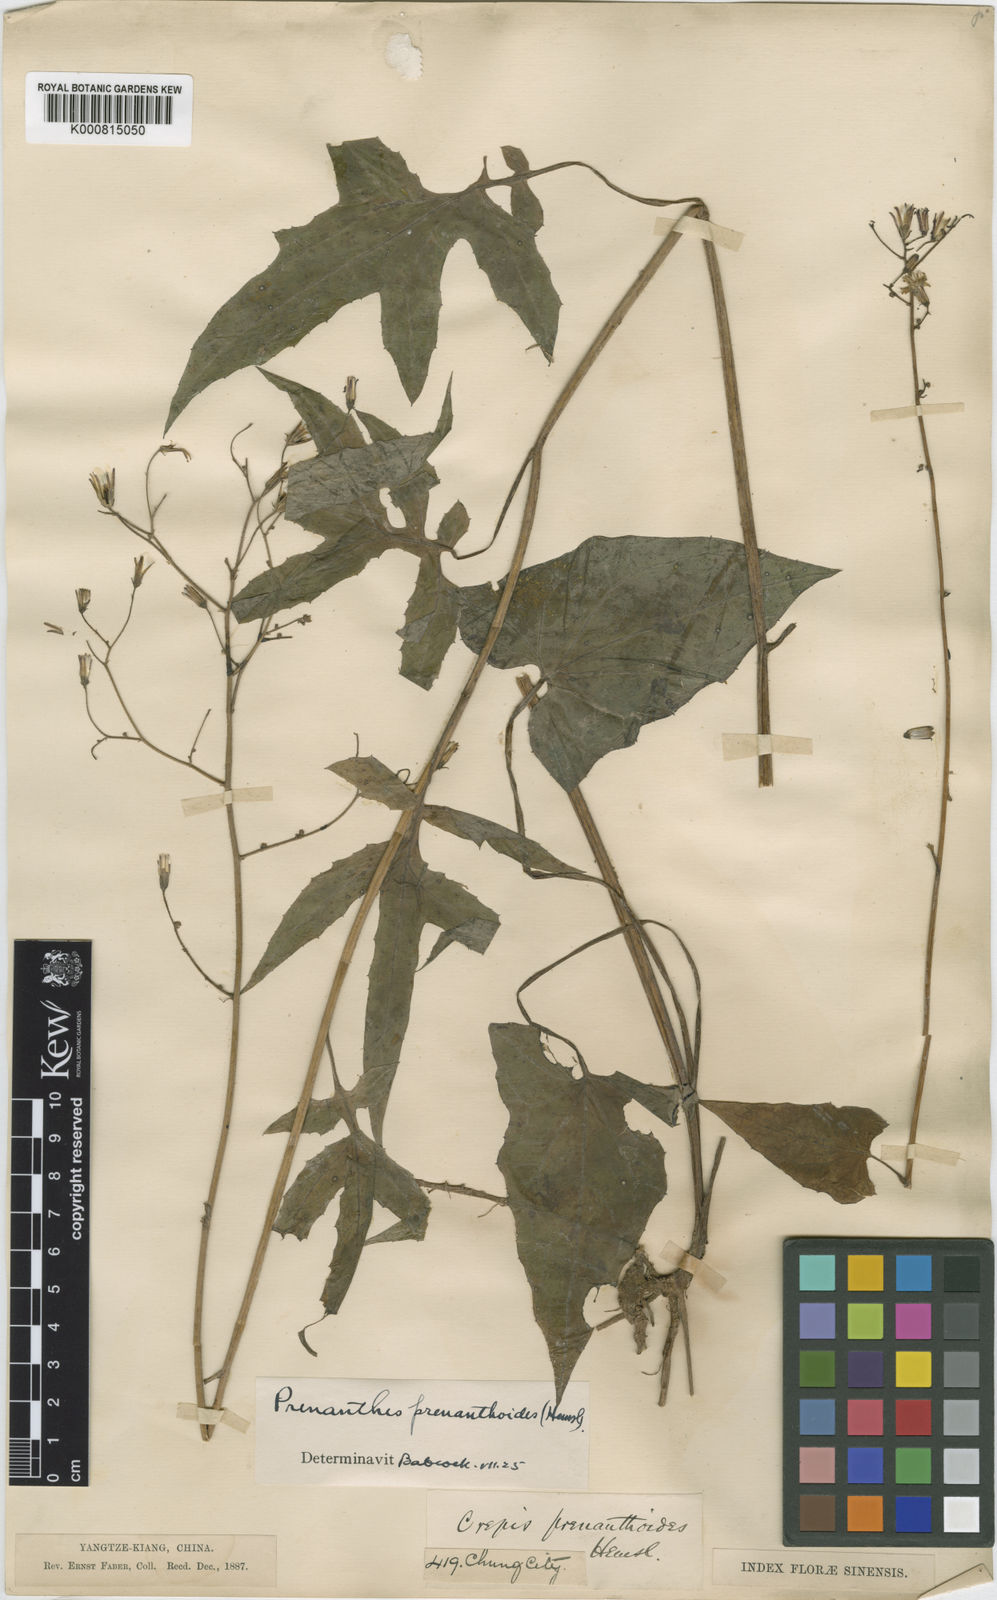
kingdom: Plantae
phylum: Tracheophyta
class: Magnoliopsida
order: Asterales
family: Asteraceae
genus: Prenanthes
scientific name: Prenanthes
